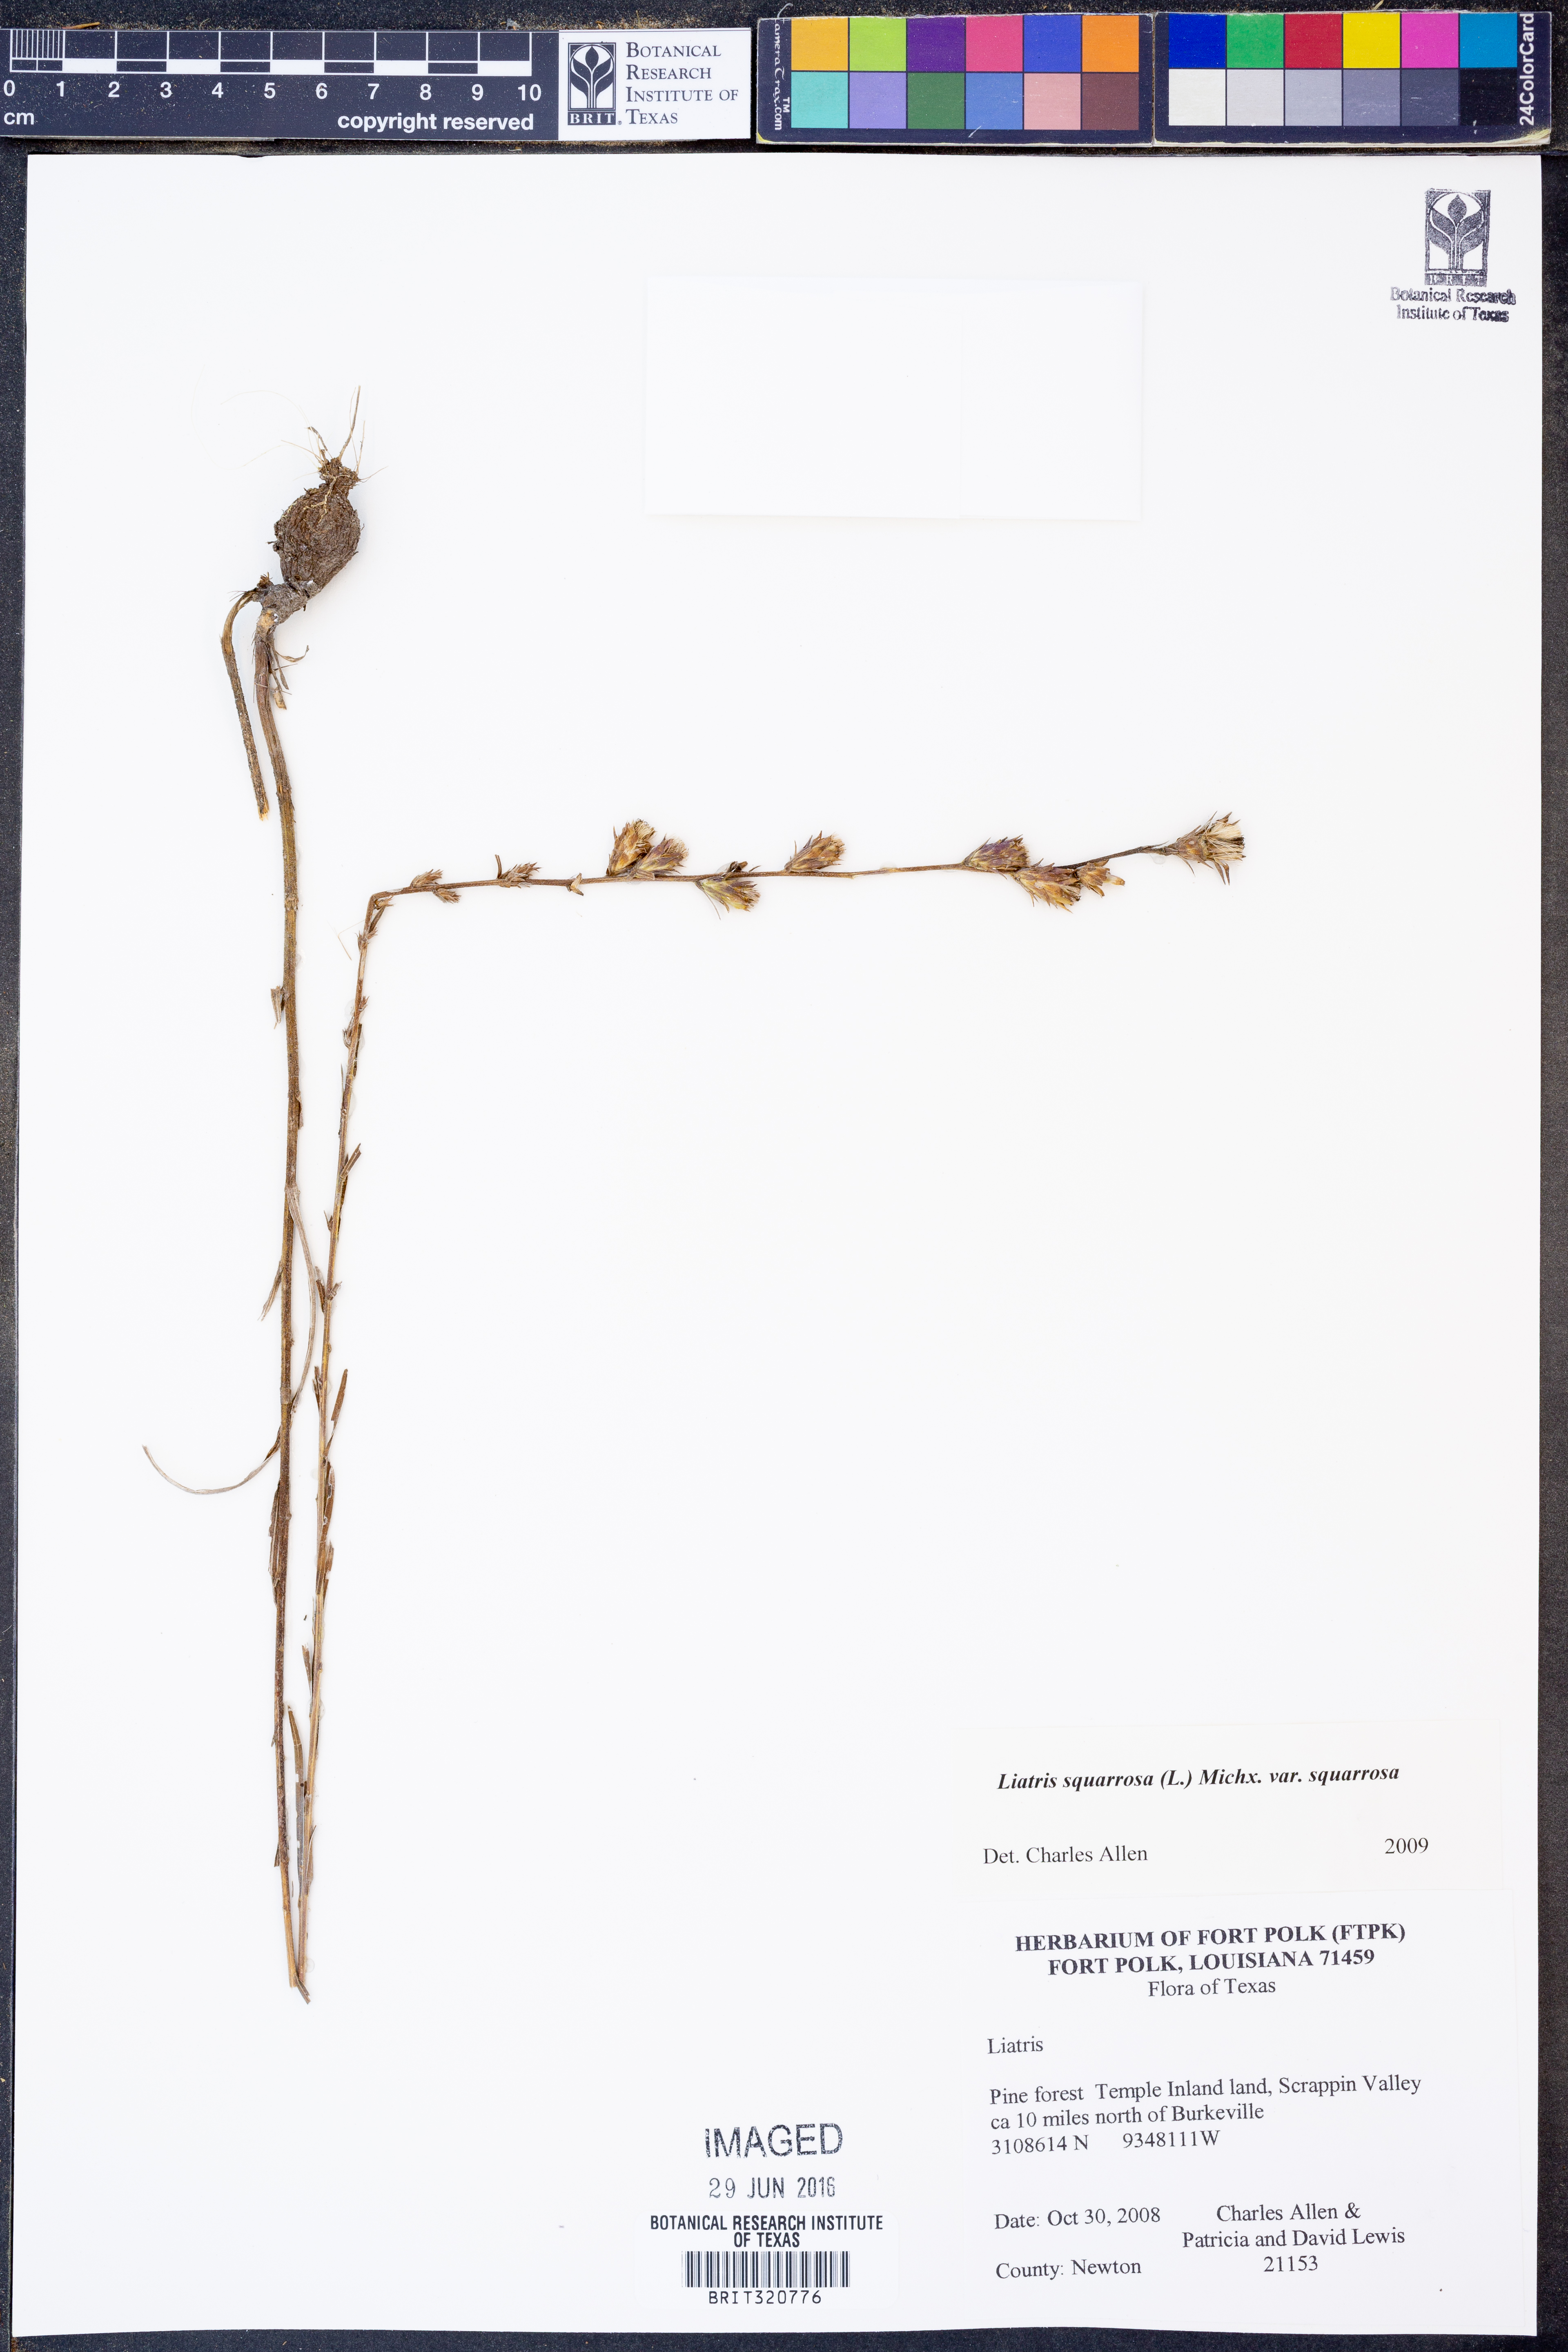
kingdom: Plantae
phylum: Tracheophyta
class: Magnoliopsida
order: Asterales
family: Asteraceae
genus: Liatris
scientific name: Liatris squarrosa
